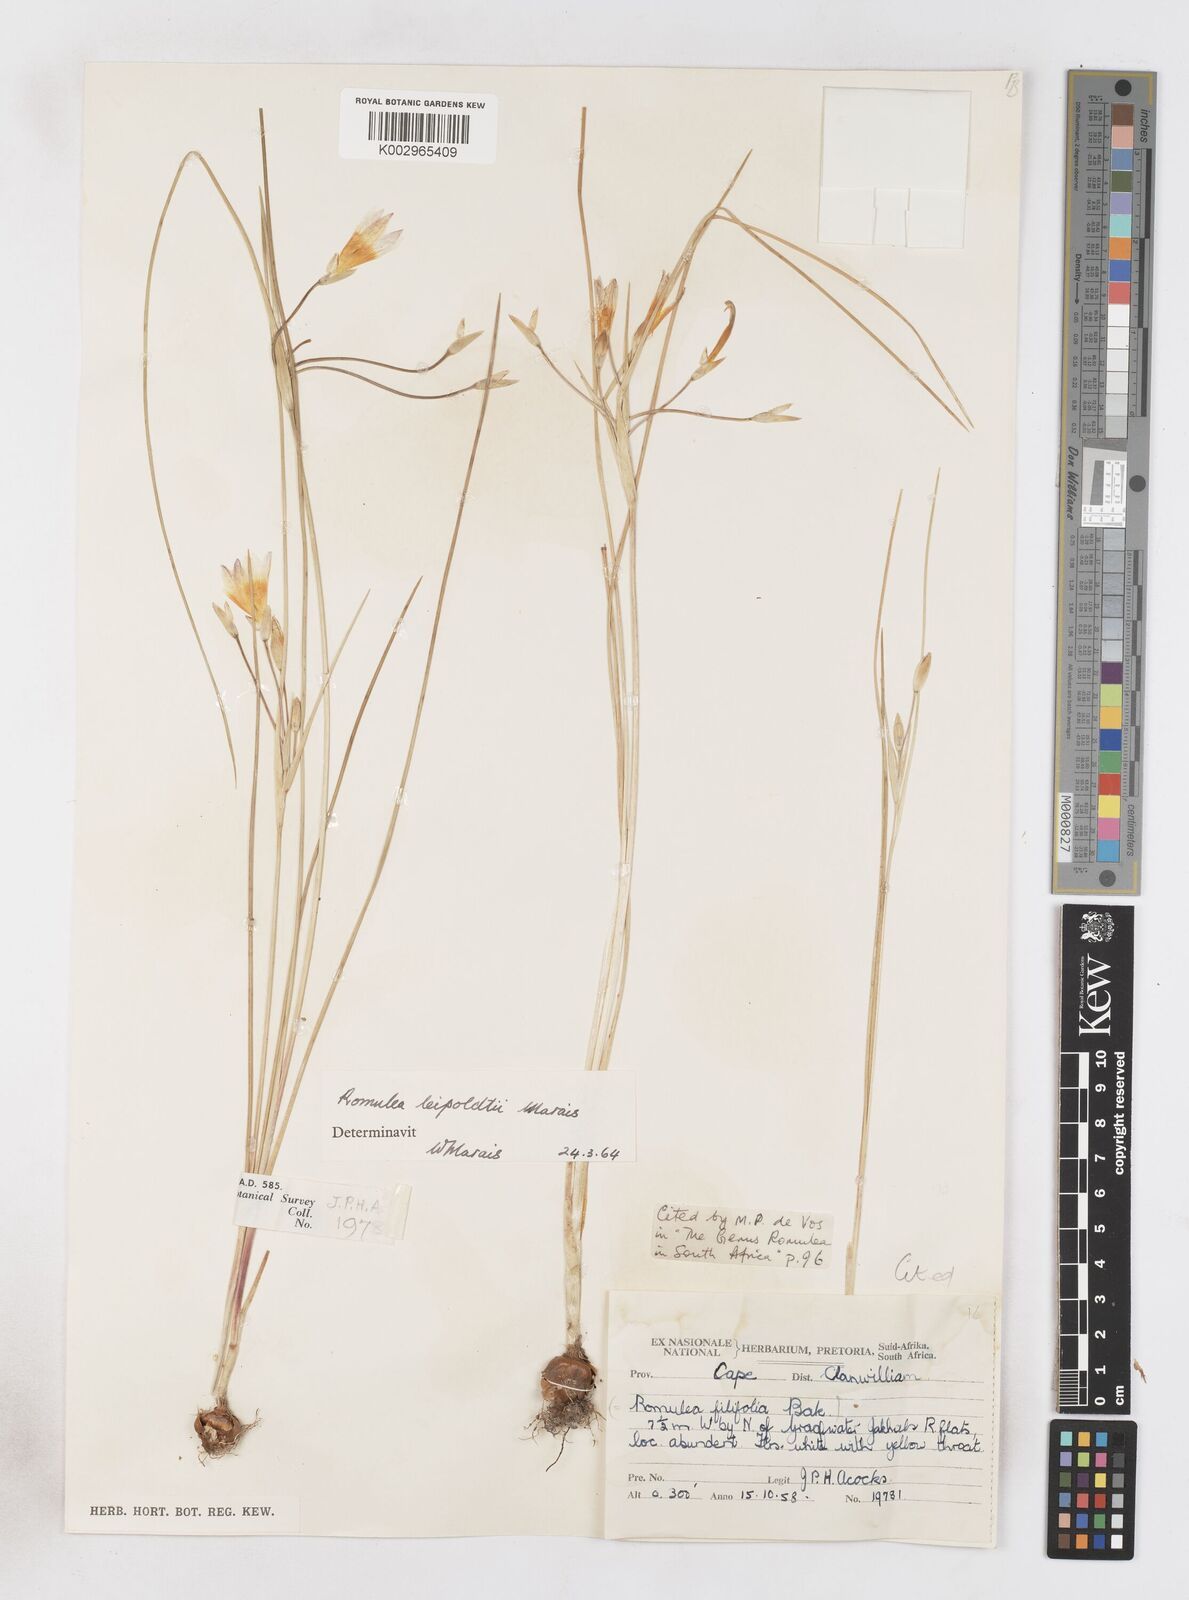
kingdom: Plantae
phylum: Tracheophyta
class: Liliopsida
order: Asparagales
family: Iridaceae
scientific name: Iridaceae
